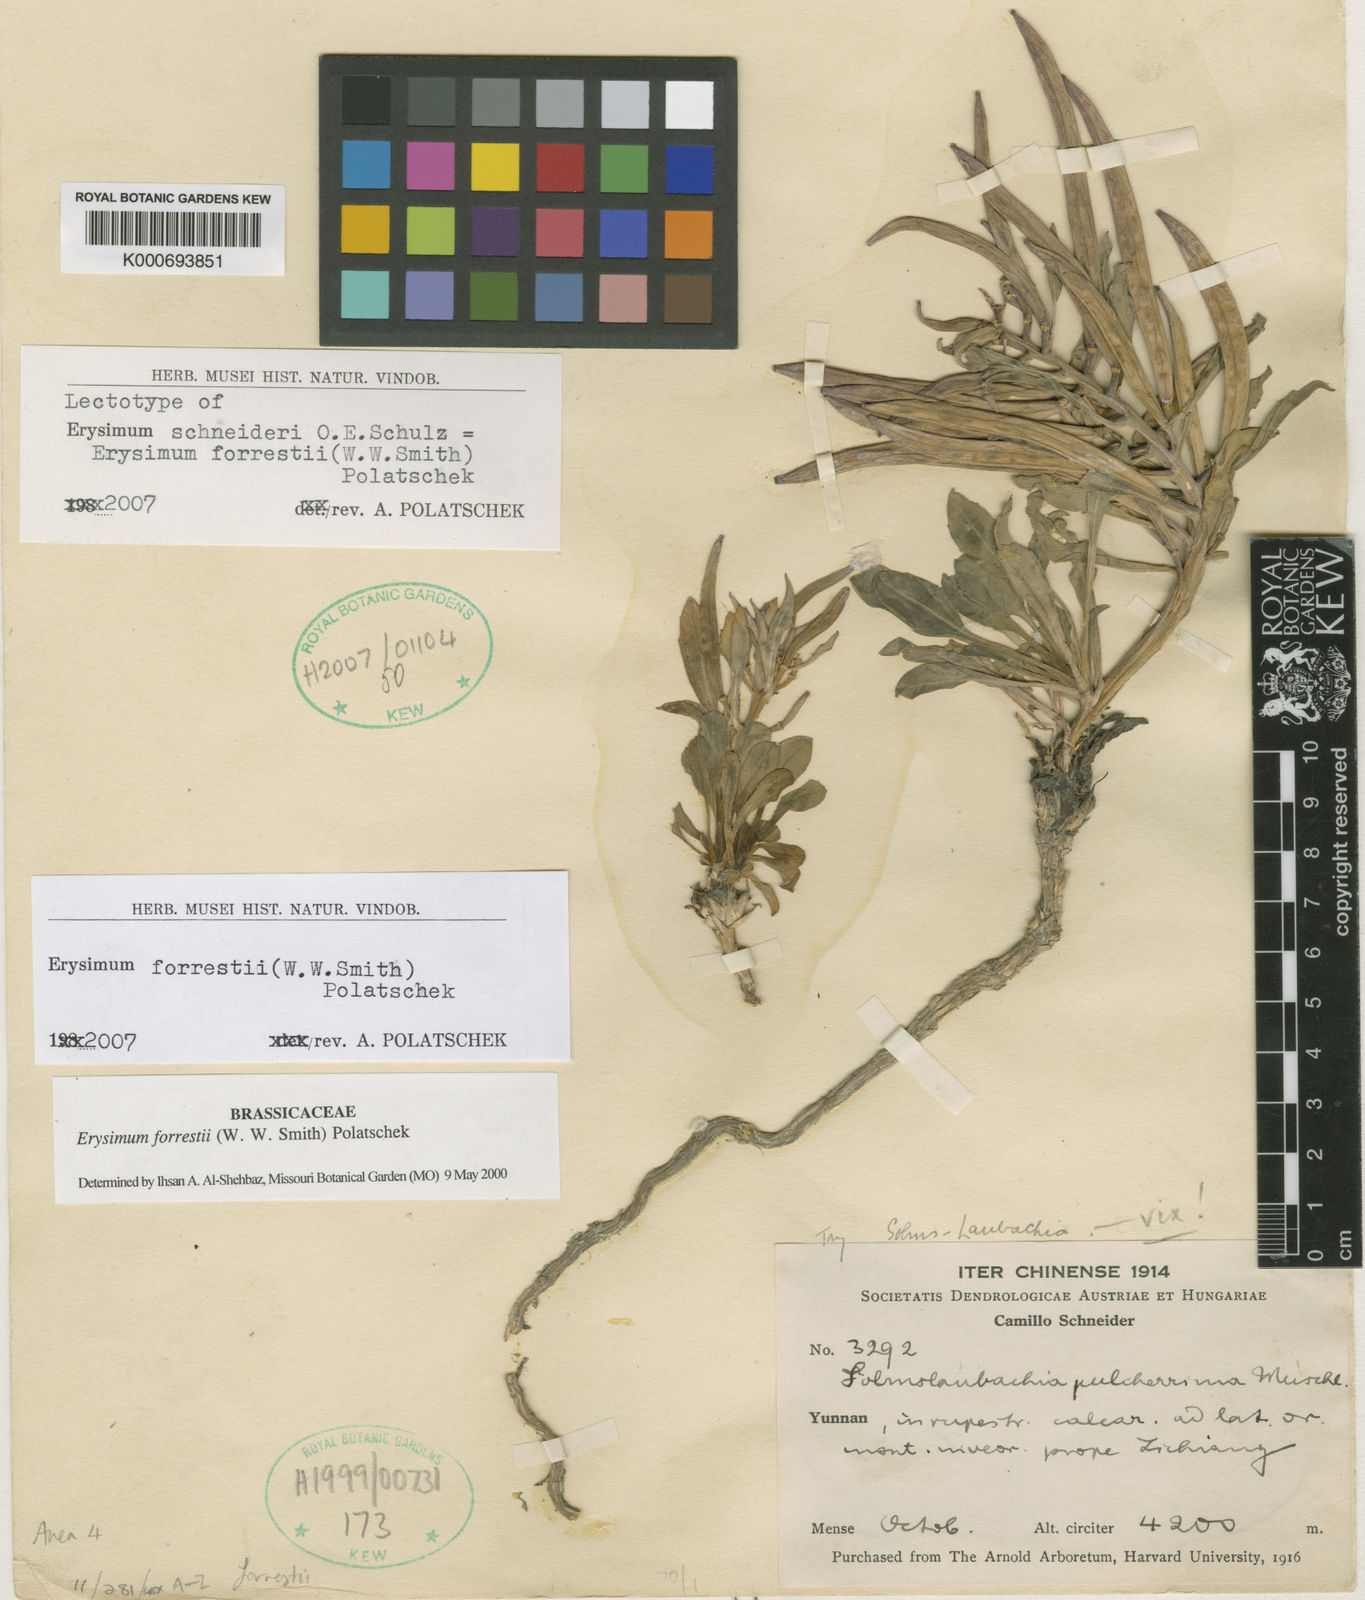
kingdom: Plantae
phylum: Tracheophyta
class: Magnoliopsida
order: Brassicales
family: Brassicaceae
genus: Erysimum
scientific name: Erysimum roseum
